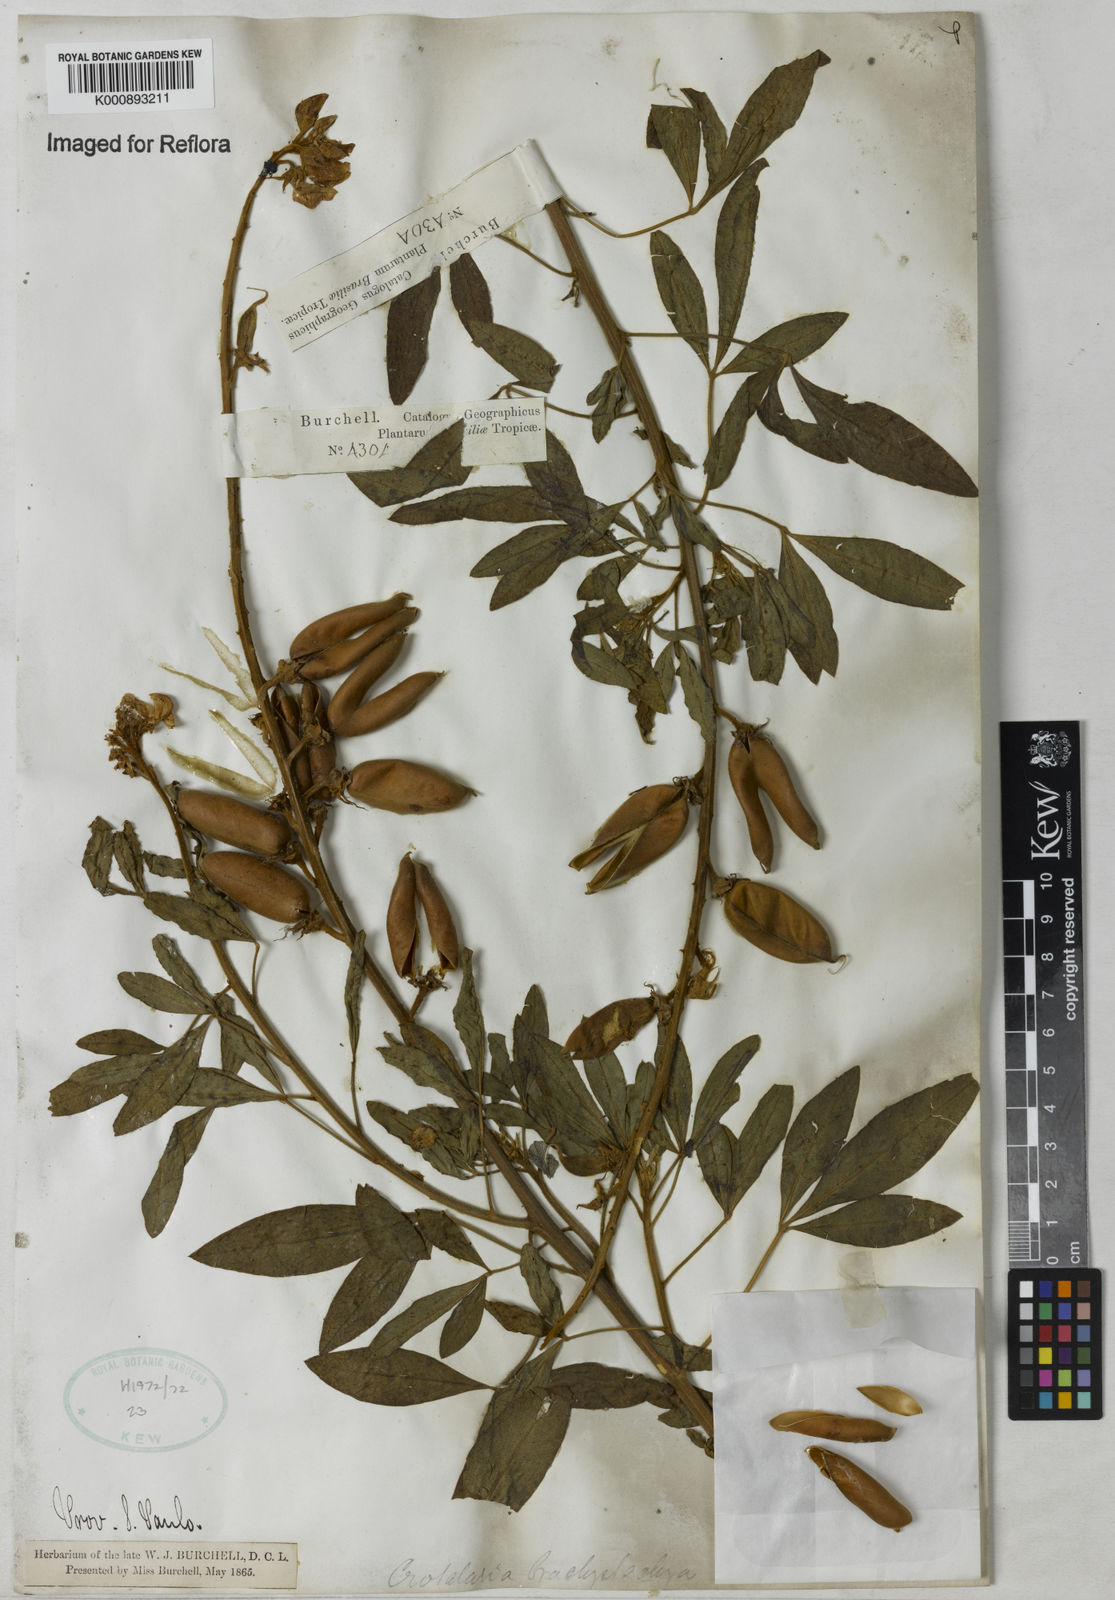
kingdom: Plantae
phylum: Tracheophyta
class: Magnoliopsida
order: Fabales
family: Fabaceae
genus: Crotalaria
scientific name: Crotalaria micans
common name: Caracas rattlebox
